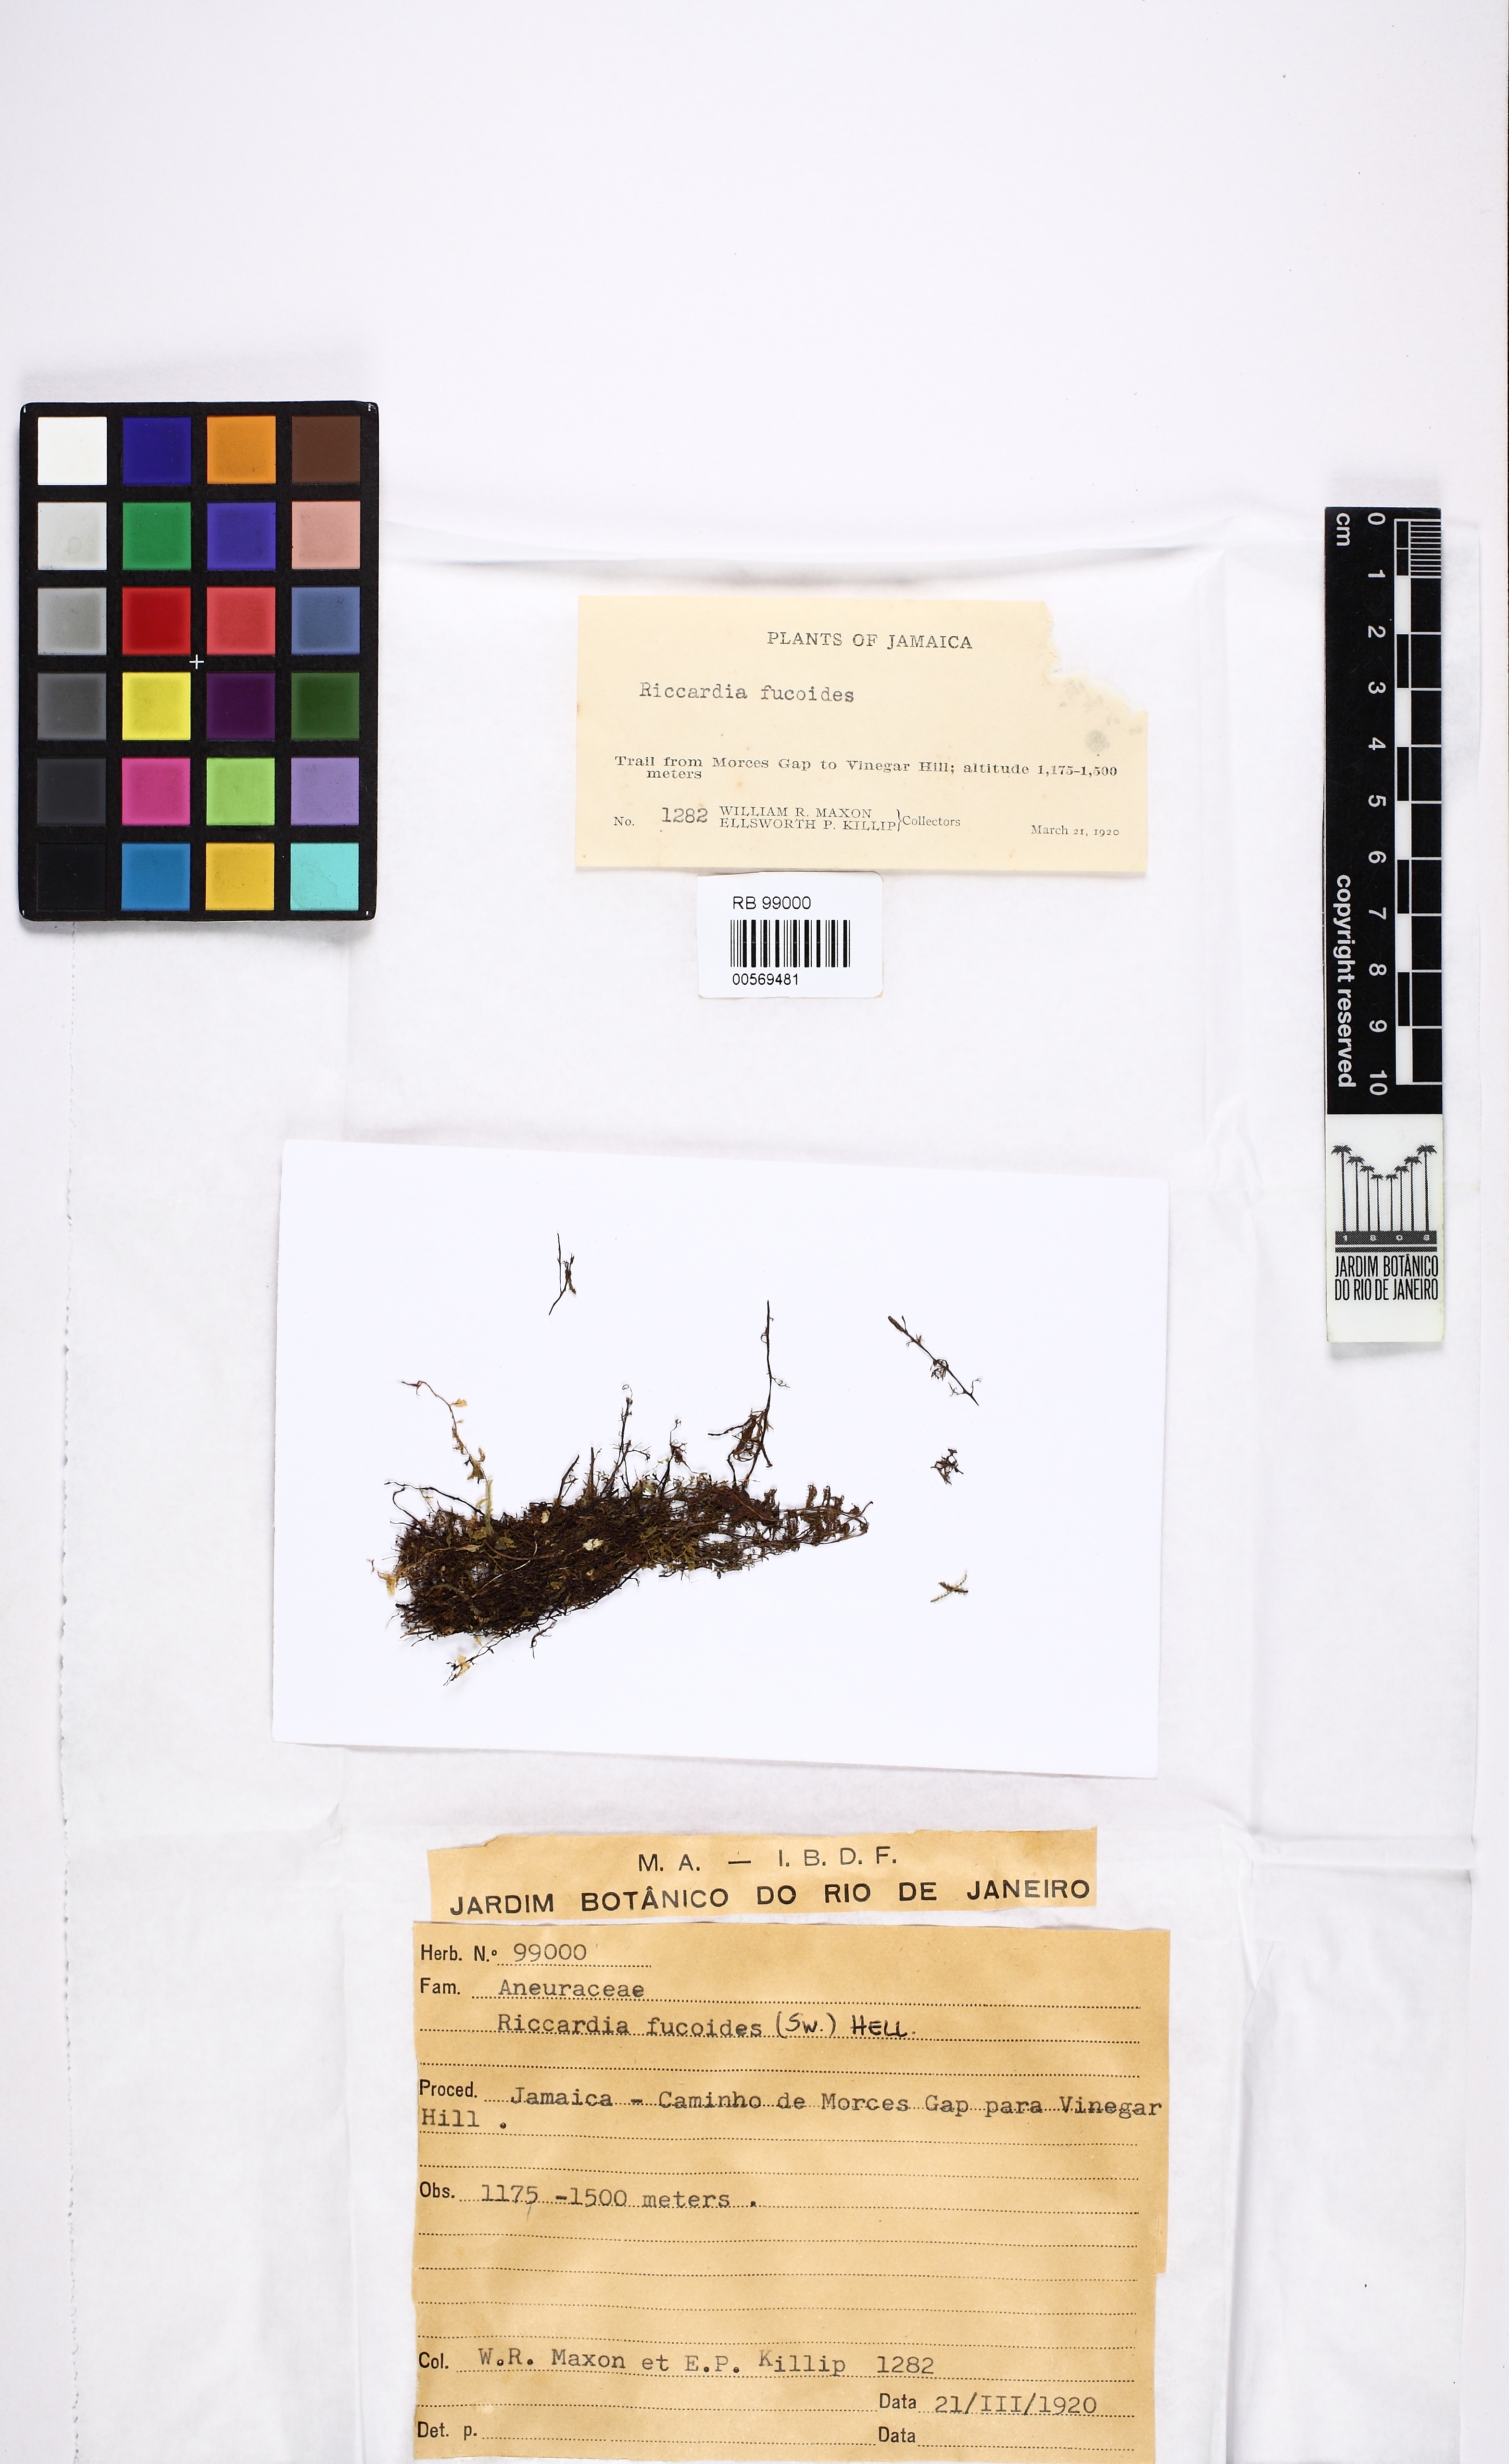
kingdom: Plantae
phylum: Marchantiophyta
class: Jungermanniopsida
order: Metzgeriales
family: Aneuraceae
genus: Riccardia
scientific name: Riccardia fucoides
